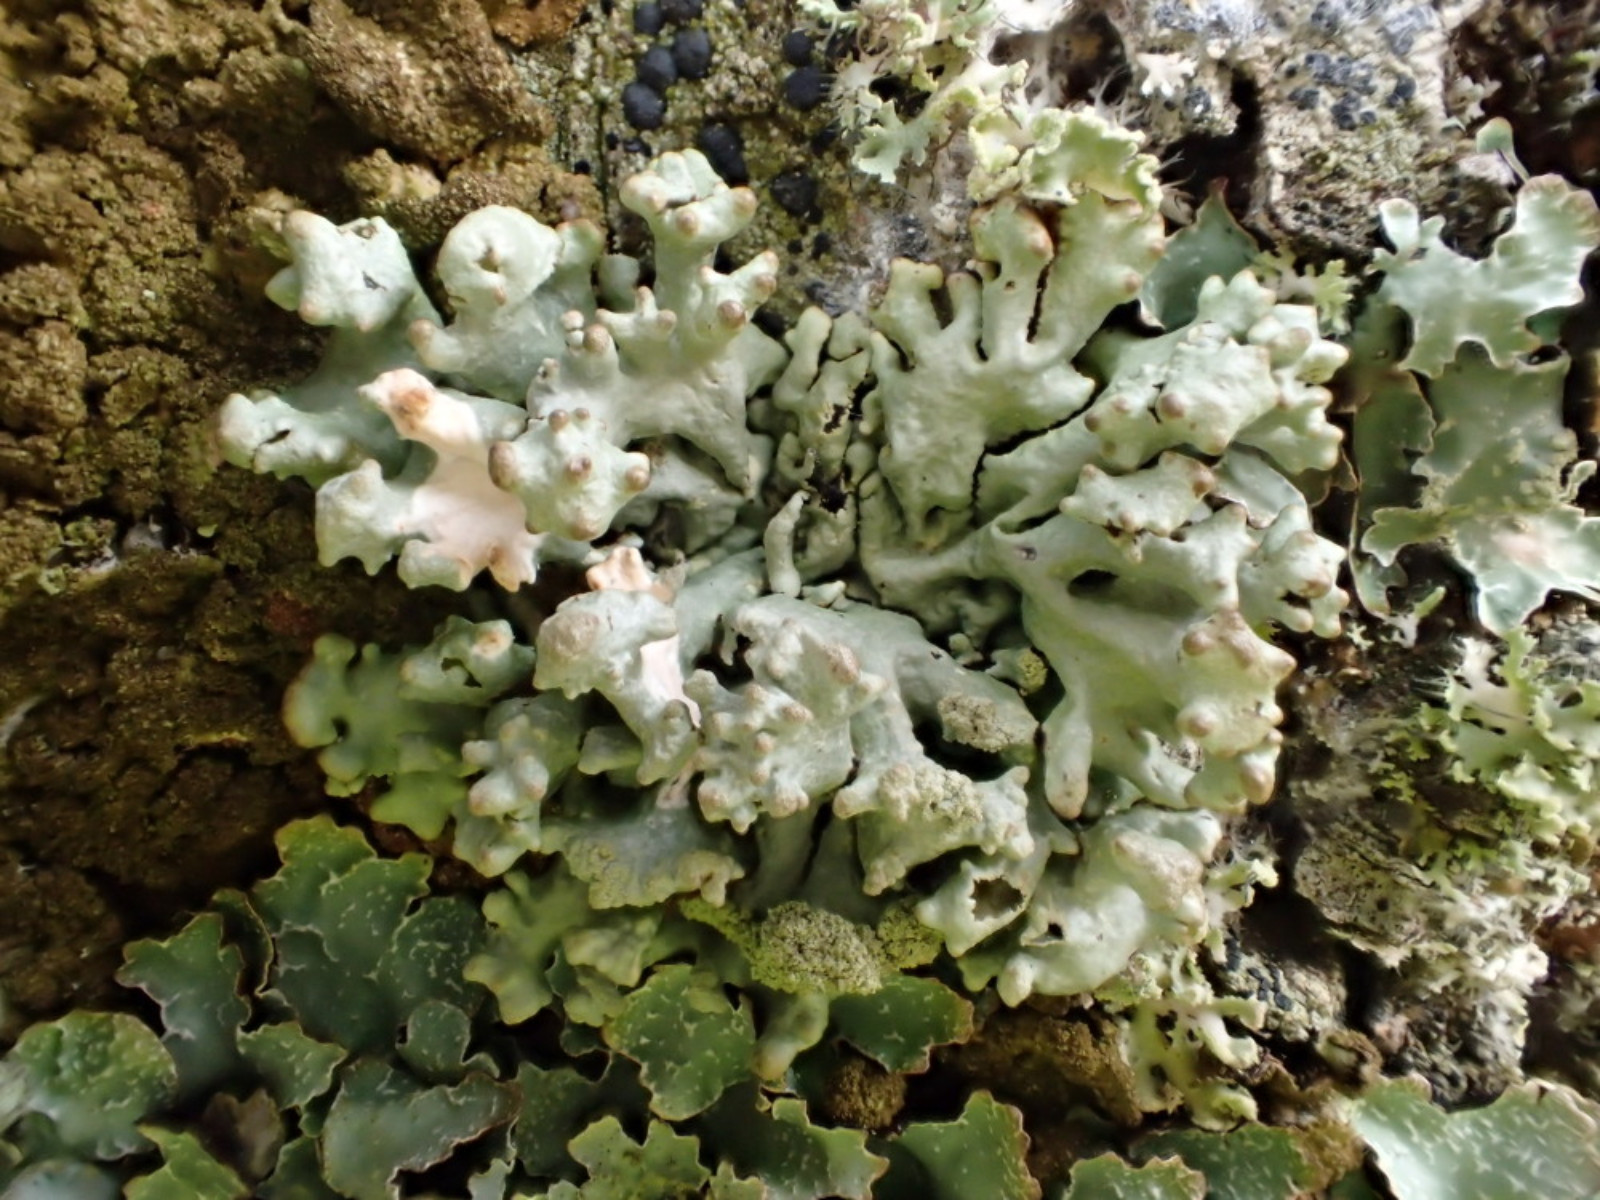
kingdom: Fungi
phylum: Ascomycota
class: Lecanoromycetes
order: Lecanorales
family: Parmeliaceae
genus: Hypogymnia
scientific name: Hypogymnia tubulosa
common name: finger-kvistlav
